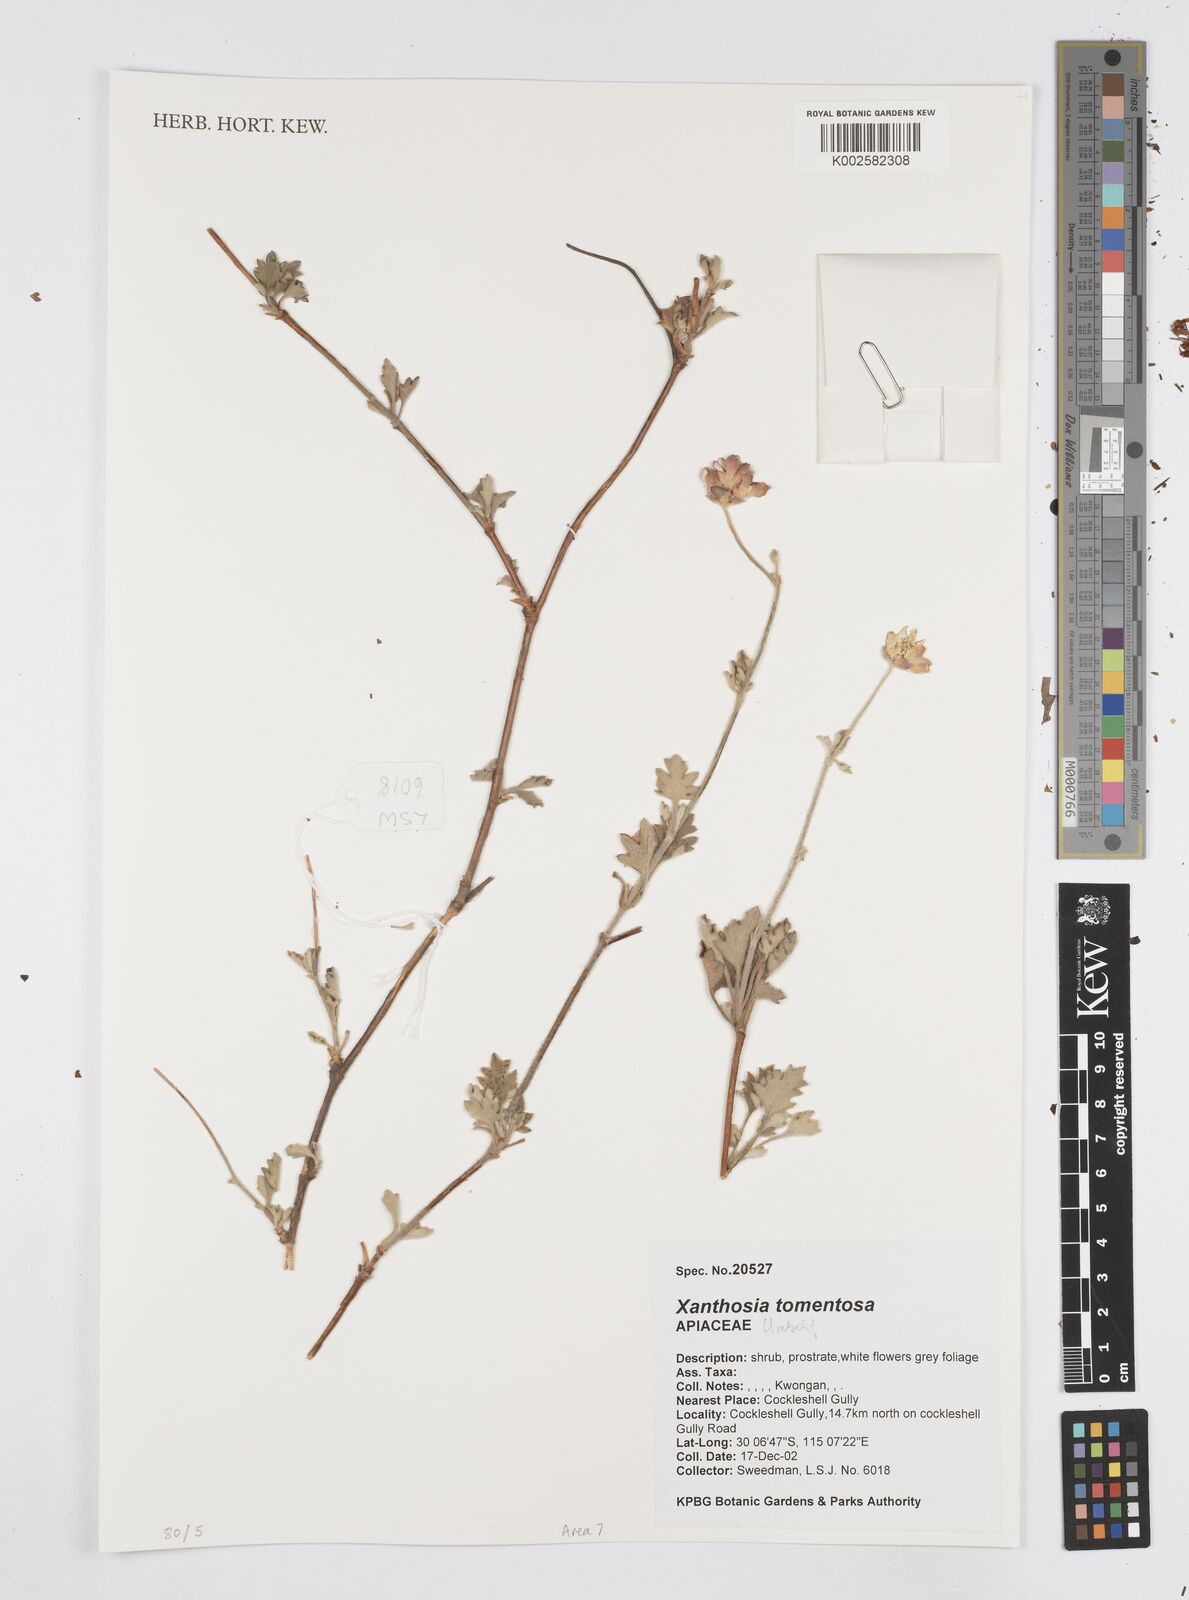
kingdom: Plantae
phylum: Tracheophyta
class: Magnoliopsida
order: Apiales
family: Apiaceae
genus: Xanthosia
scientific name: Xanthosia tomentosa
